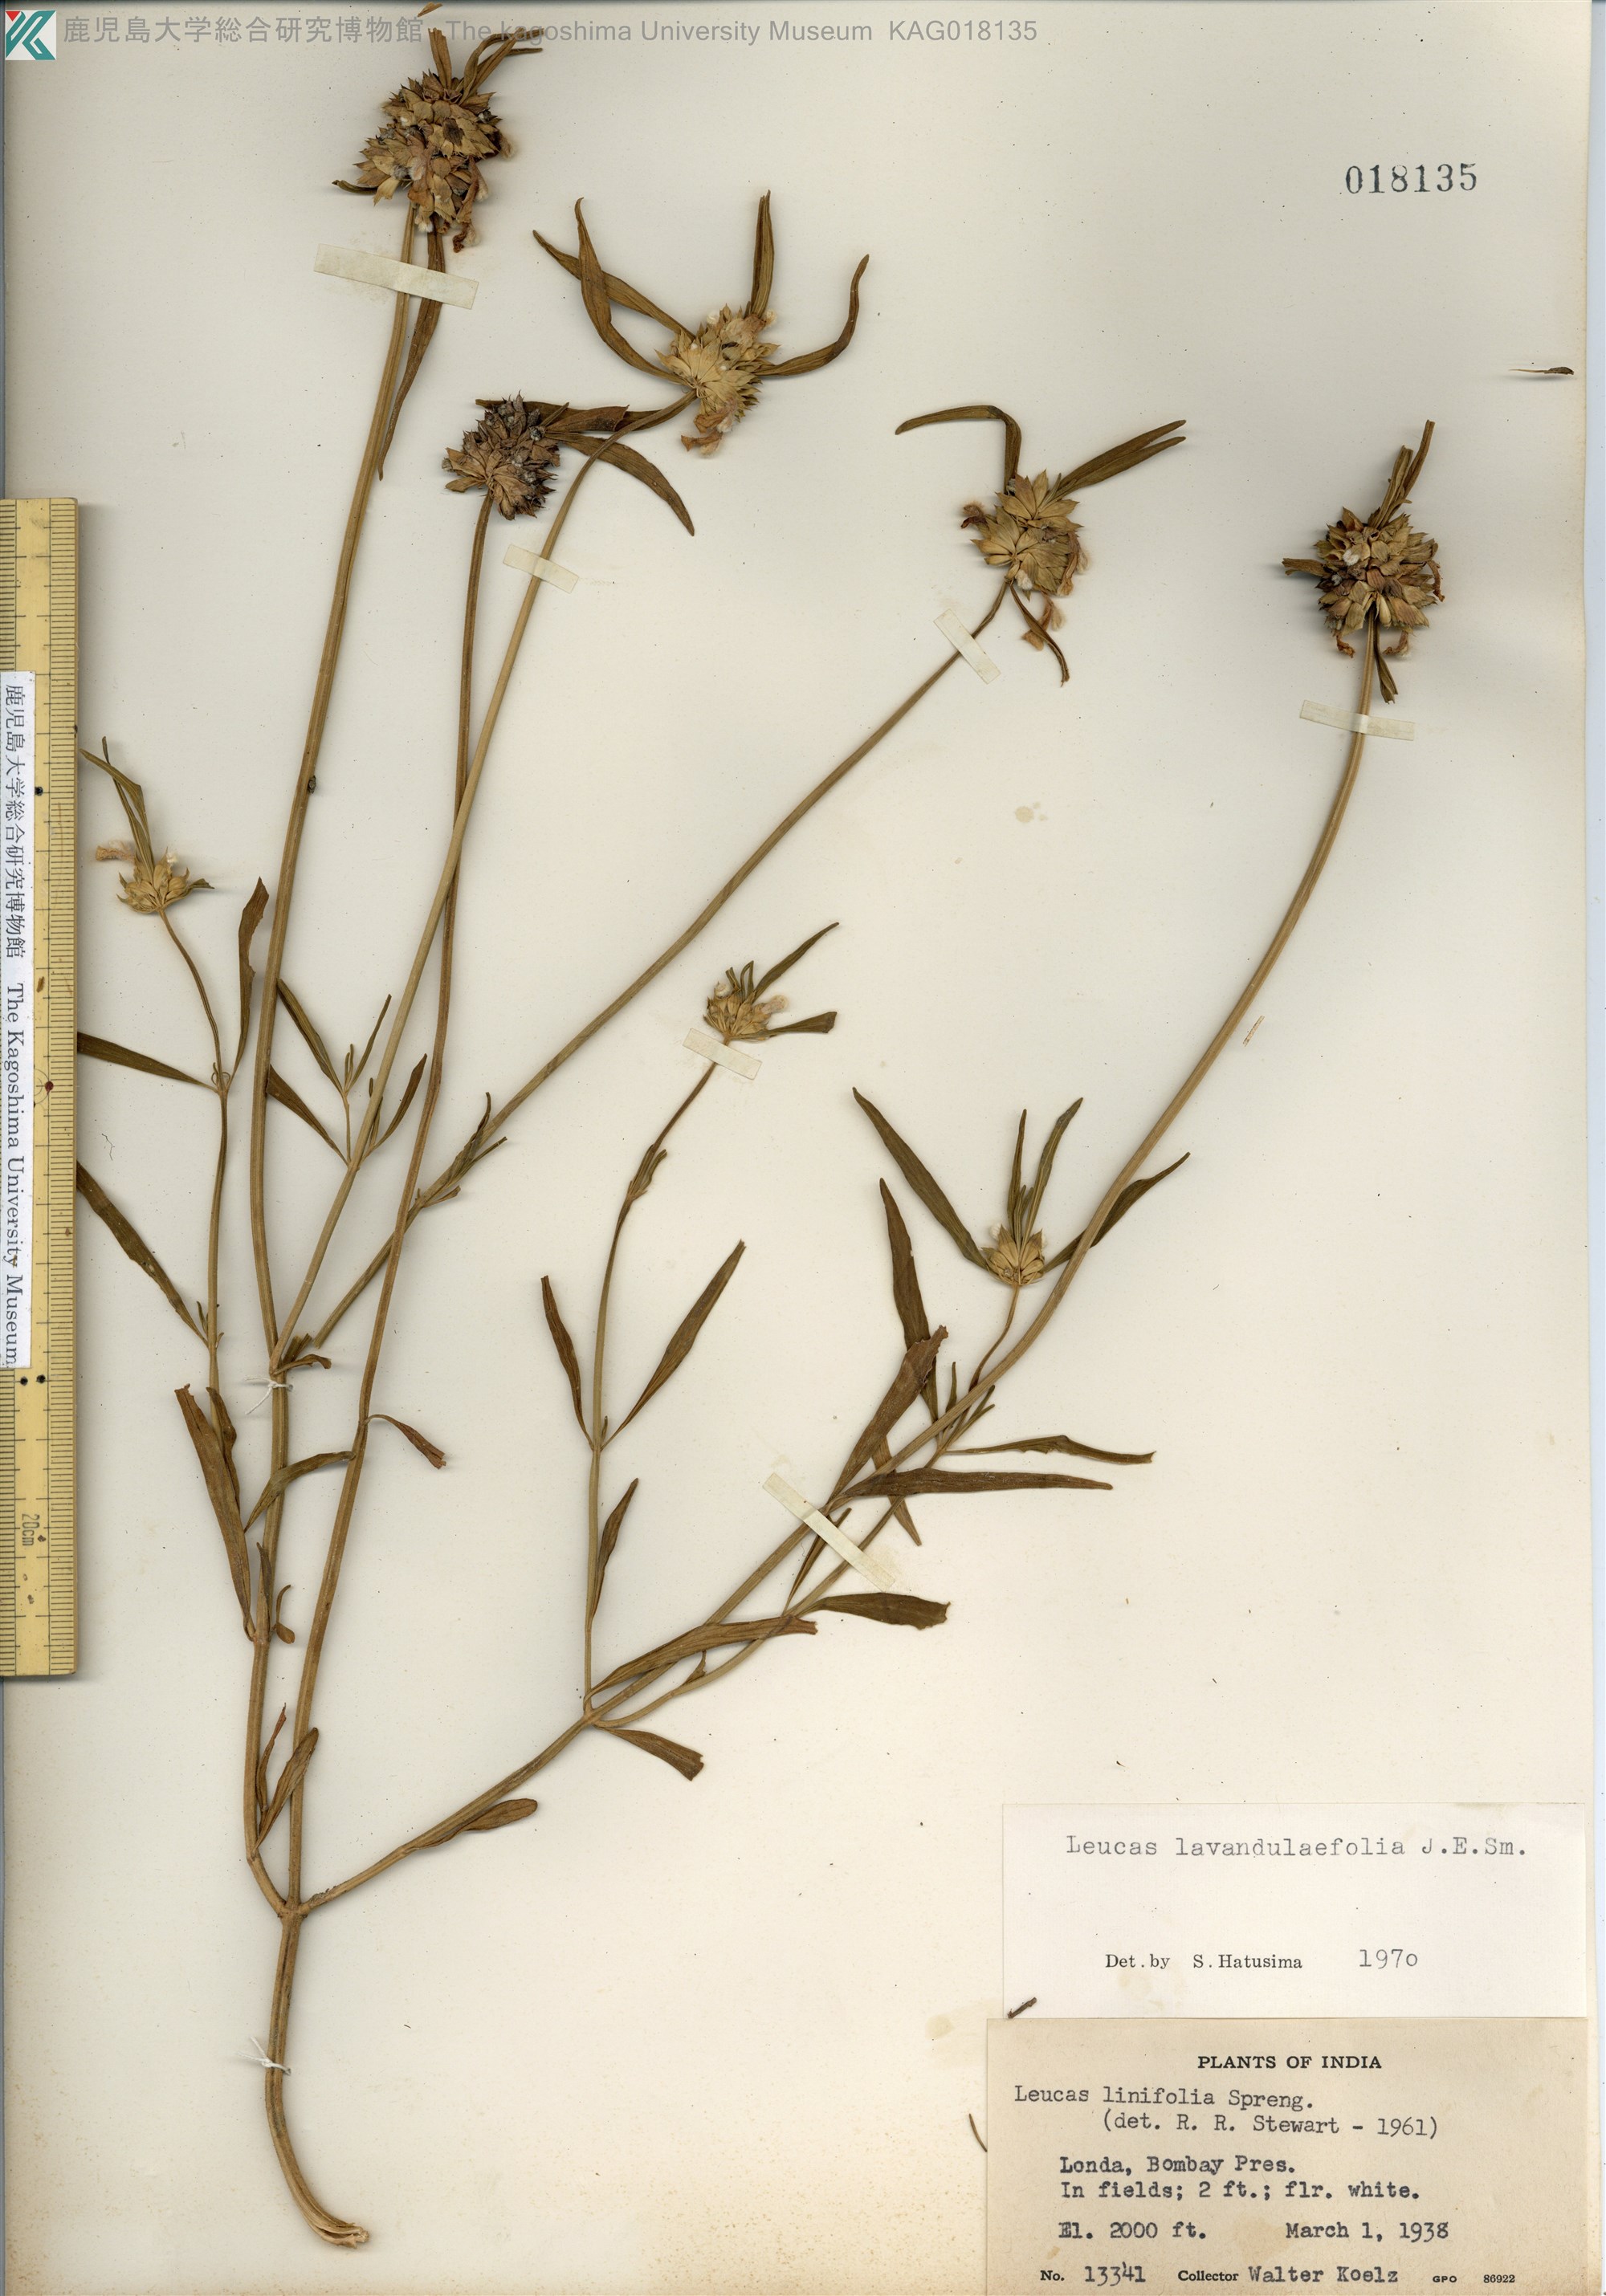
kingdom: Plantae
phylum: Tracheophyta
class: Magnoliopsida
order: Lamiales
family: Lamiaceae
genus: Leucas
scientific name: Leucas lavandulaefolia
